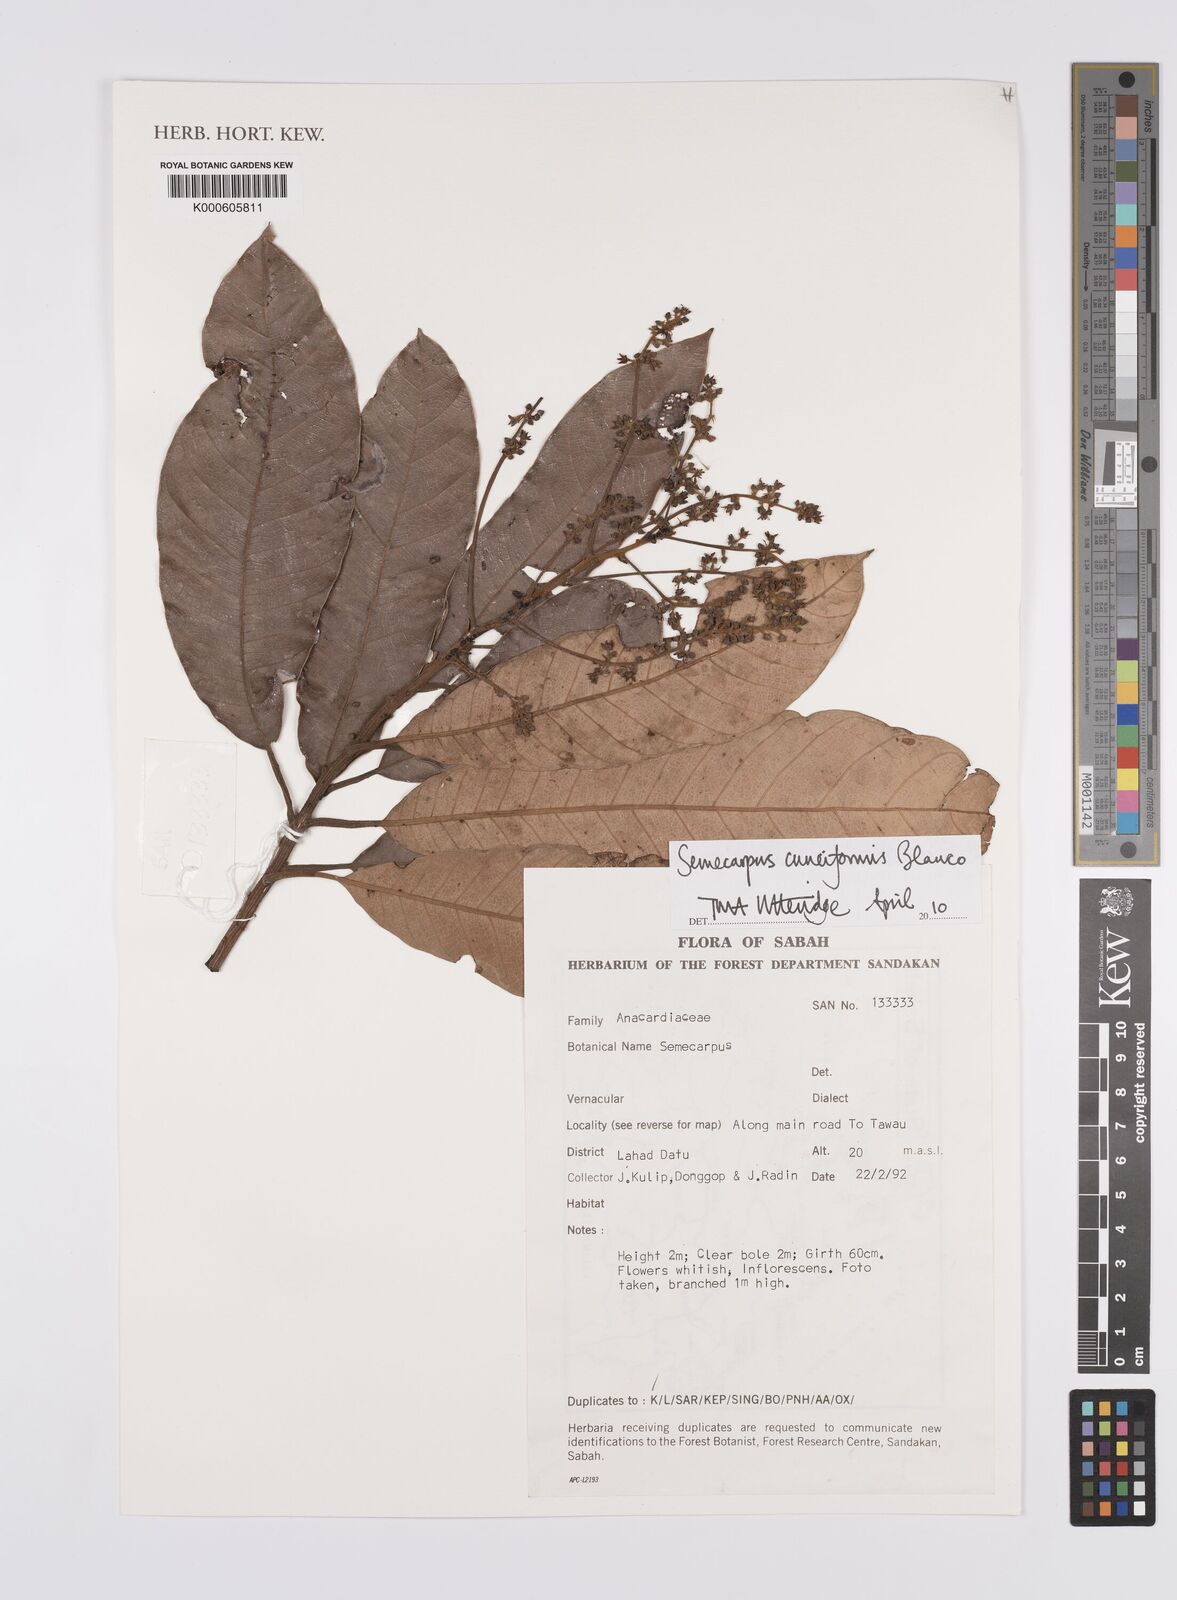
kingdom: Plantae
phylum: Tracheophyta
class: Magnoliopsida
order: Sapindales
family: Anacardiaceae
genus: Semecarpus
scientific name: Semecarpus cuneiformis
